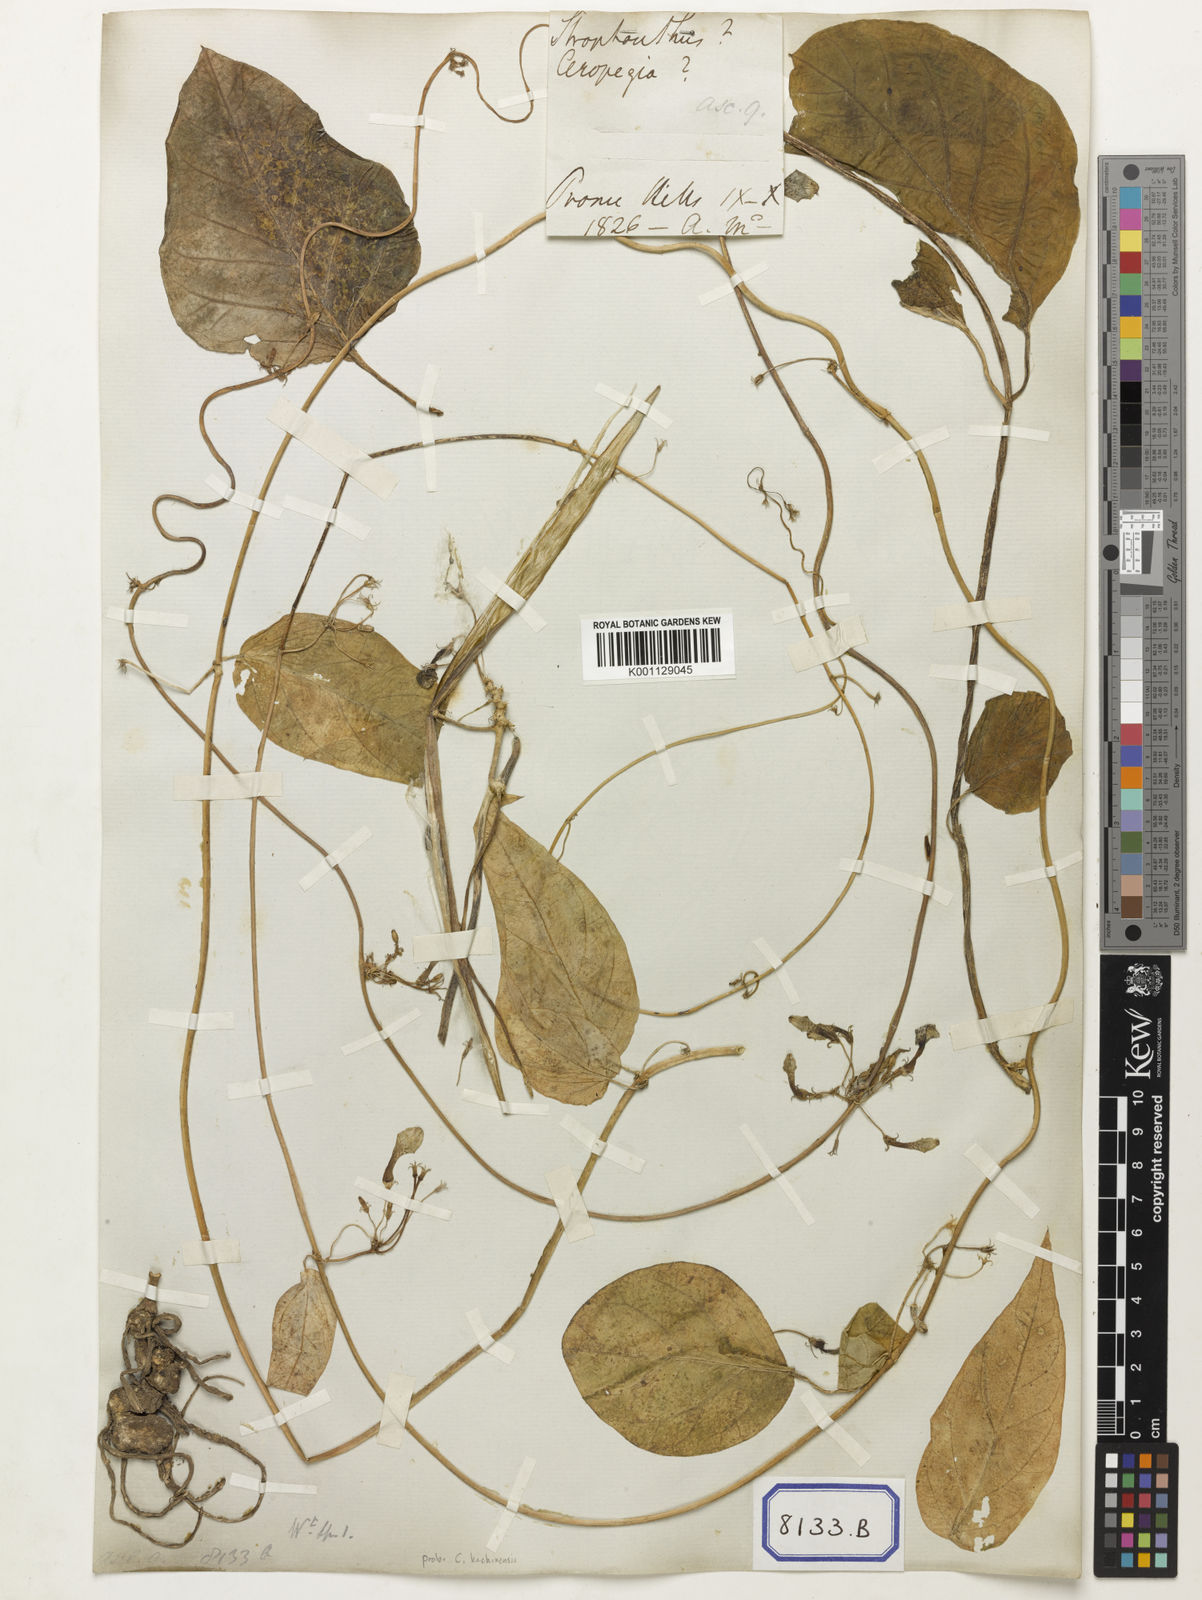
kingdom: Plantae
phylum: Tracheophyta
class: Magnoliopsida
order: Gentianales
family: Apocynaceae
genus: Ceropegia
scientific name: Ceropegia lucida
